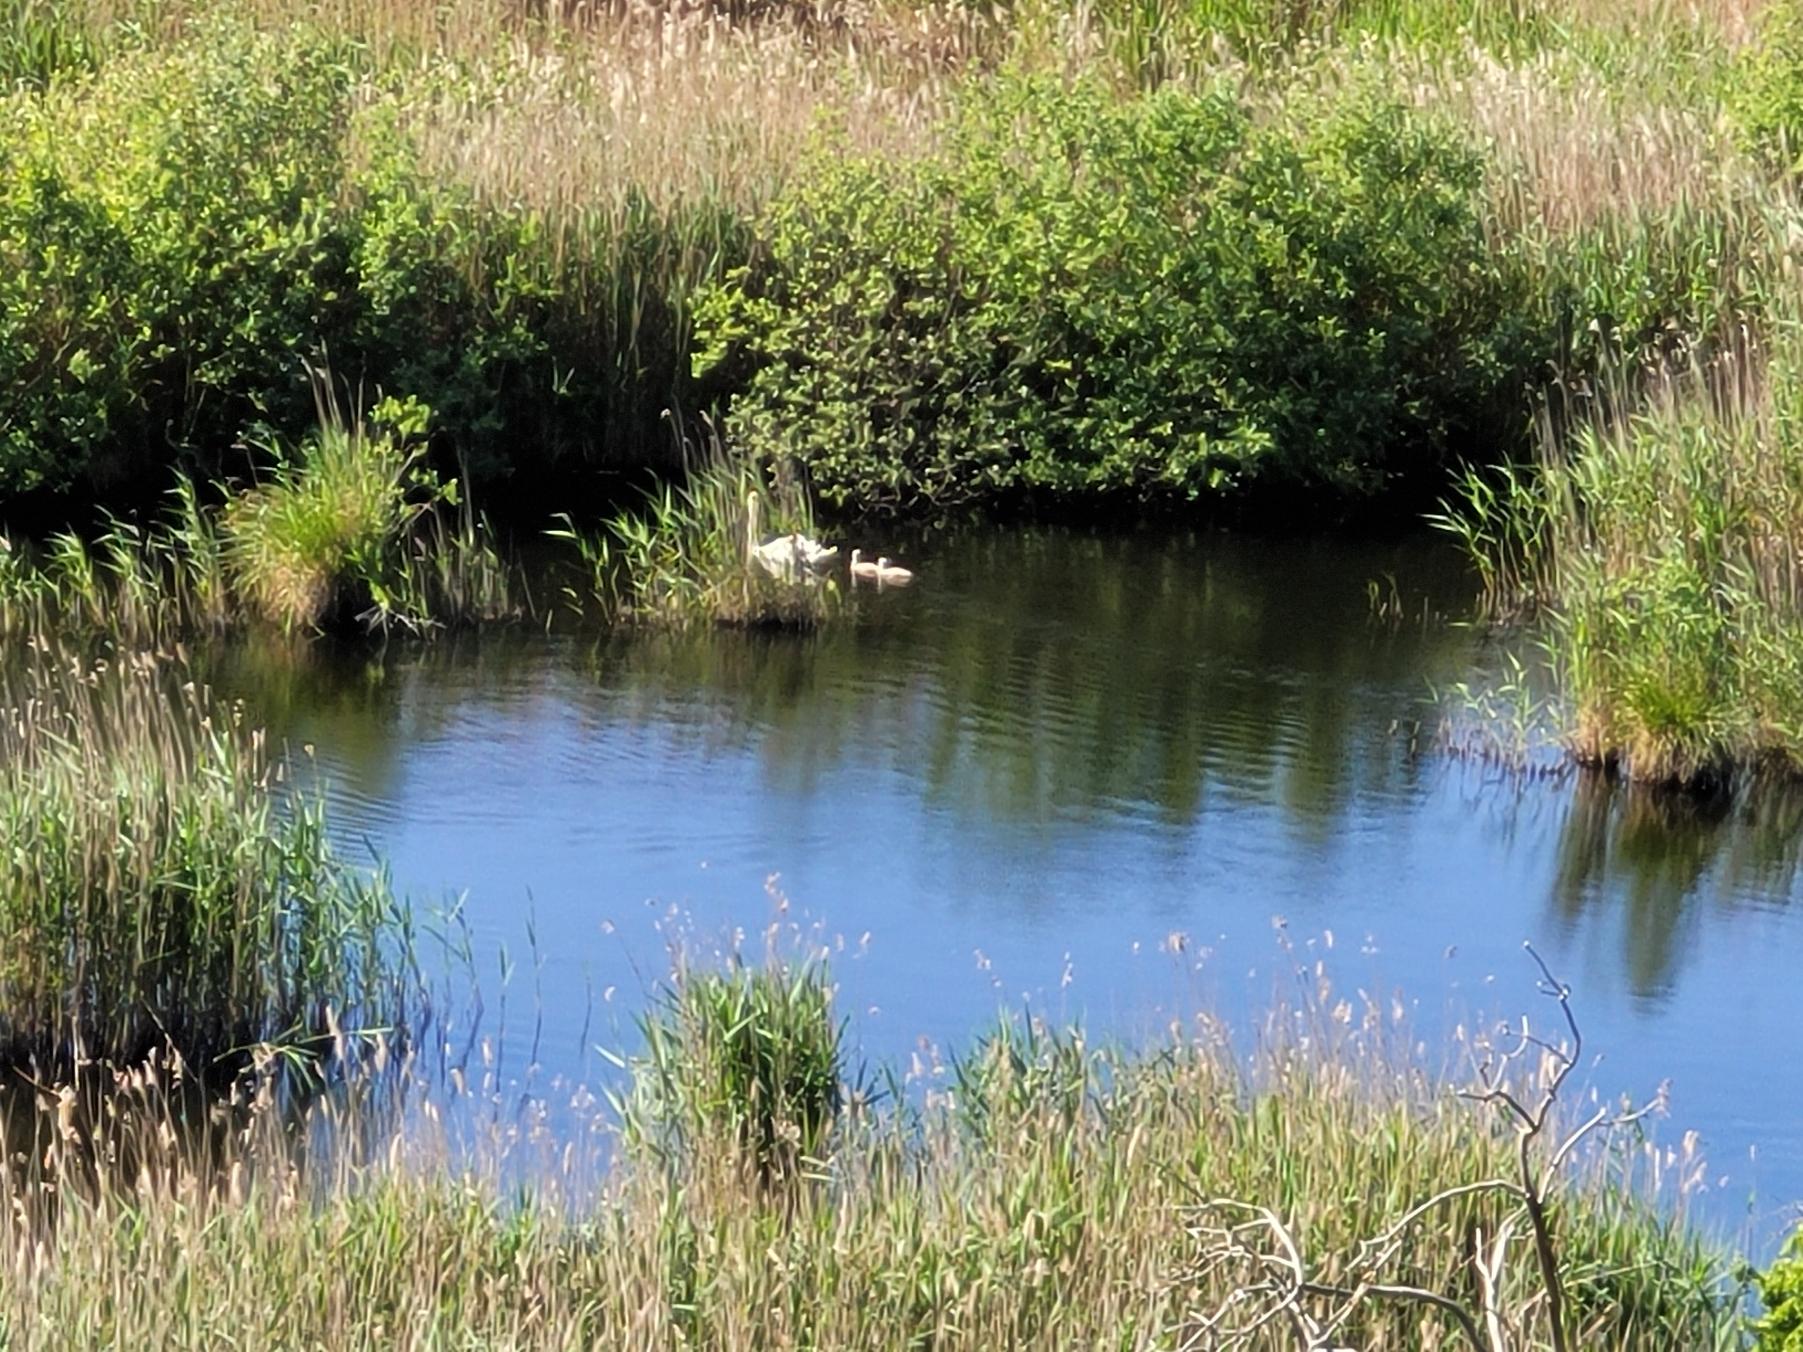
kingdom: Animalia
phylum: Chordata
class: Aves
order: Anseriformes
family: Anatidae
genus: Cygnus
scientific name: Cygnus olor
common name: Knopsvane
